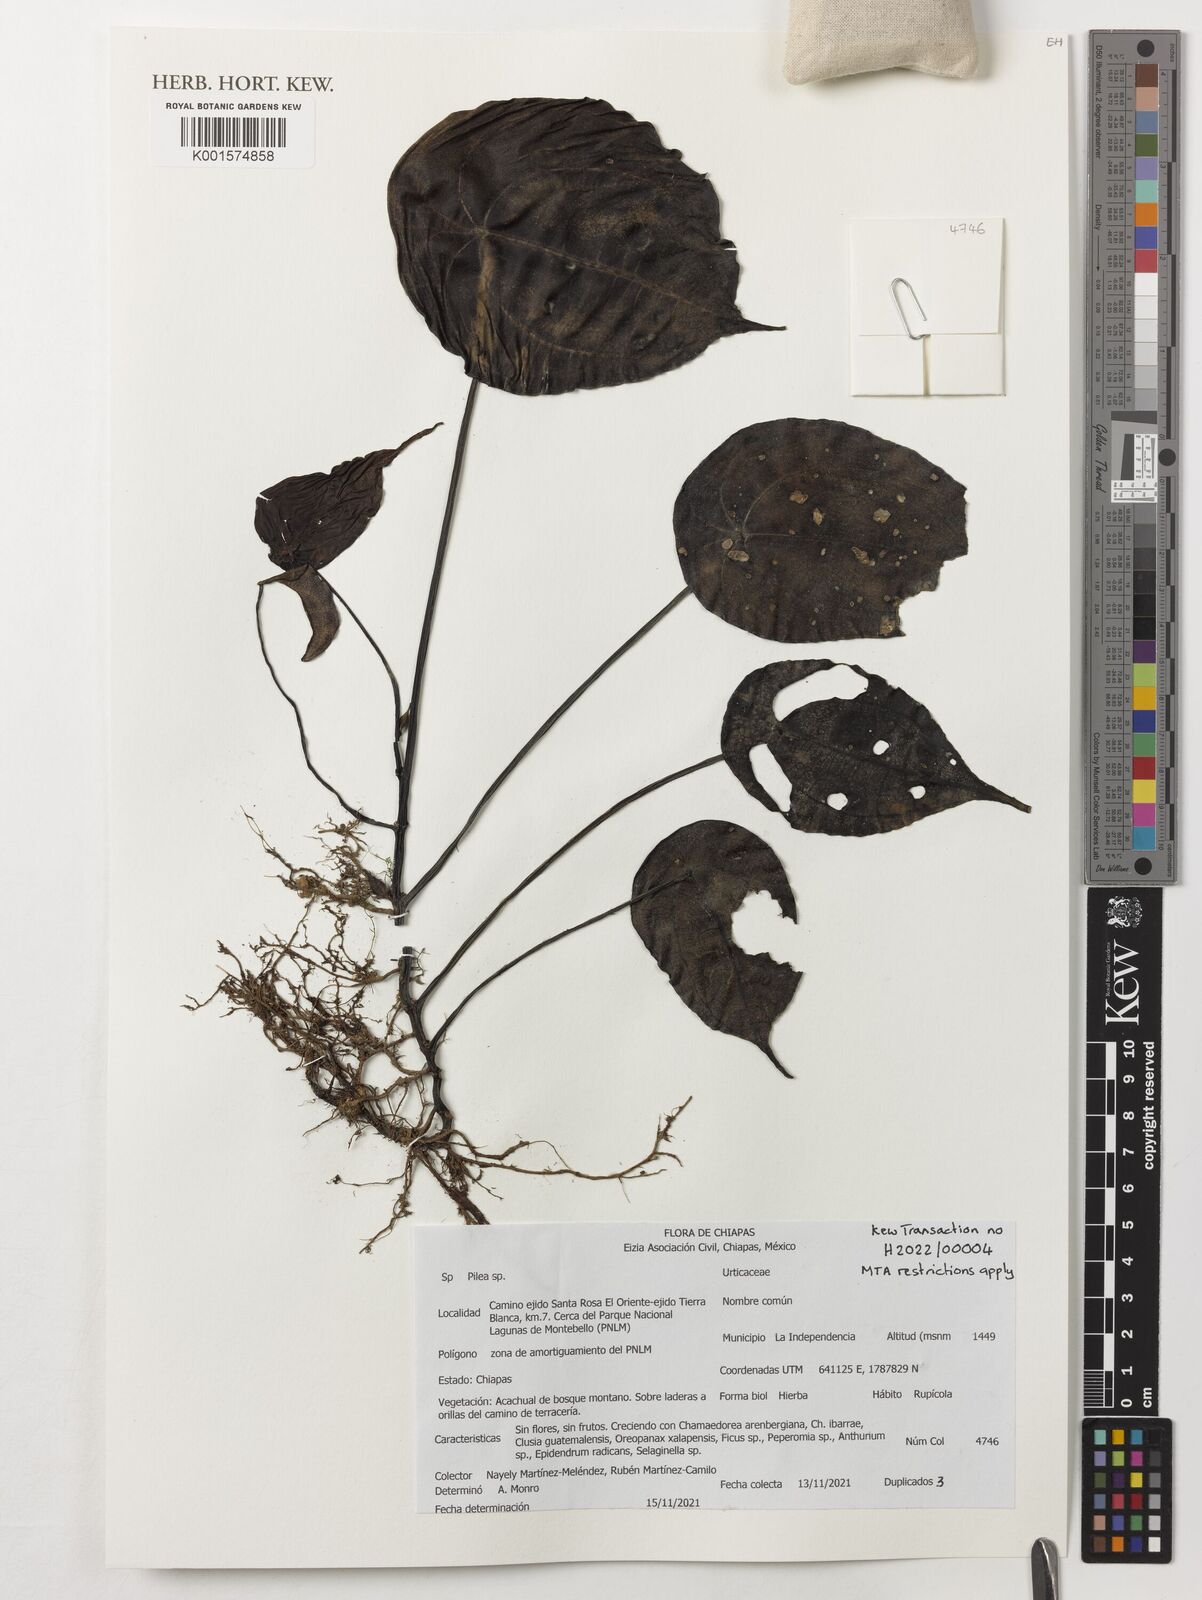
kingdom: Plantae
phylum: Tracheophyta
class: Magnoliopsida
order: Rosales
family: Urticaceae
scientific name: Urticaceae
